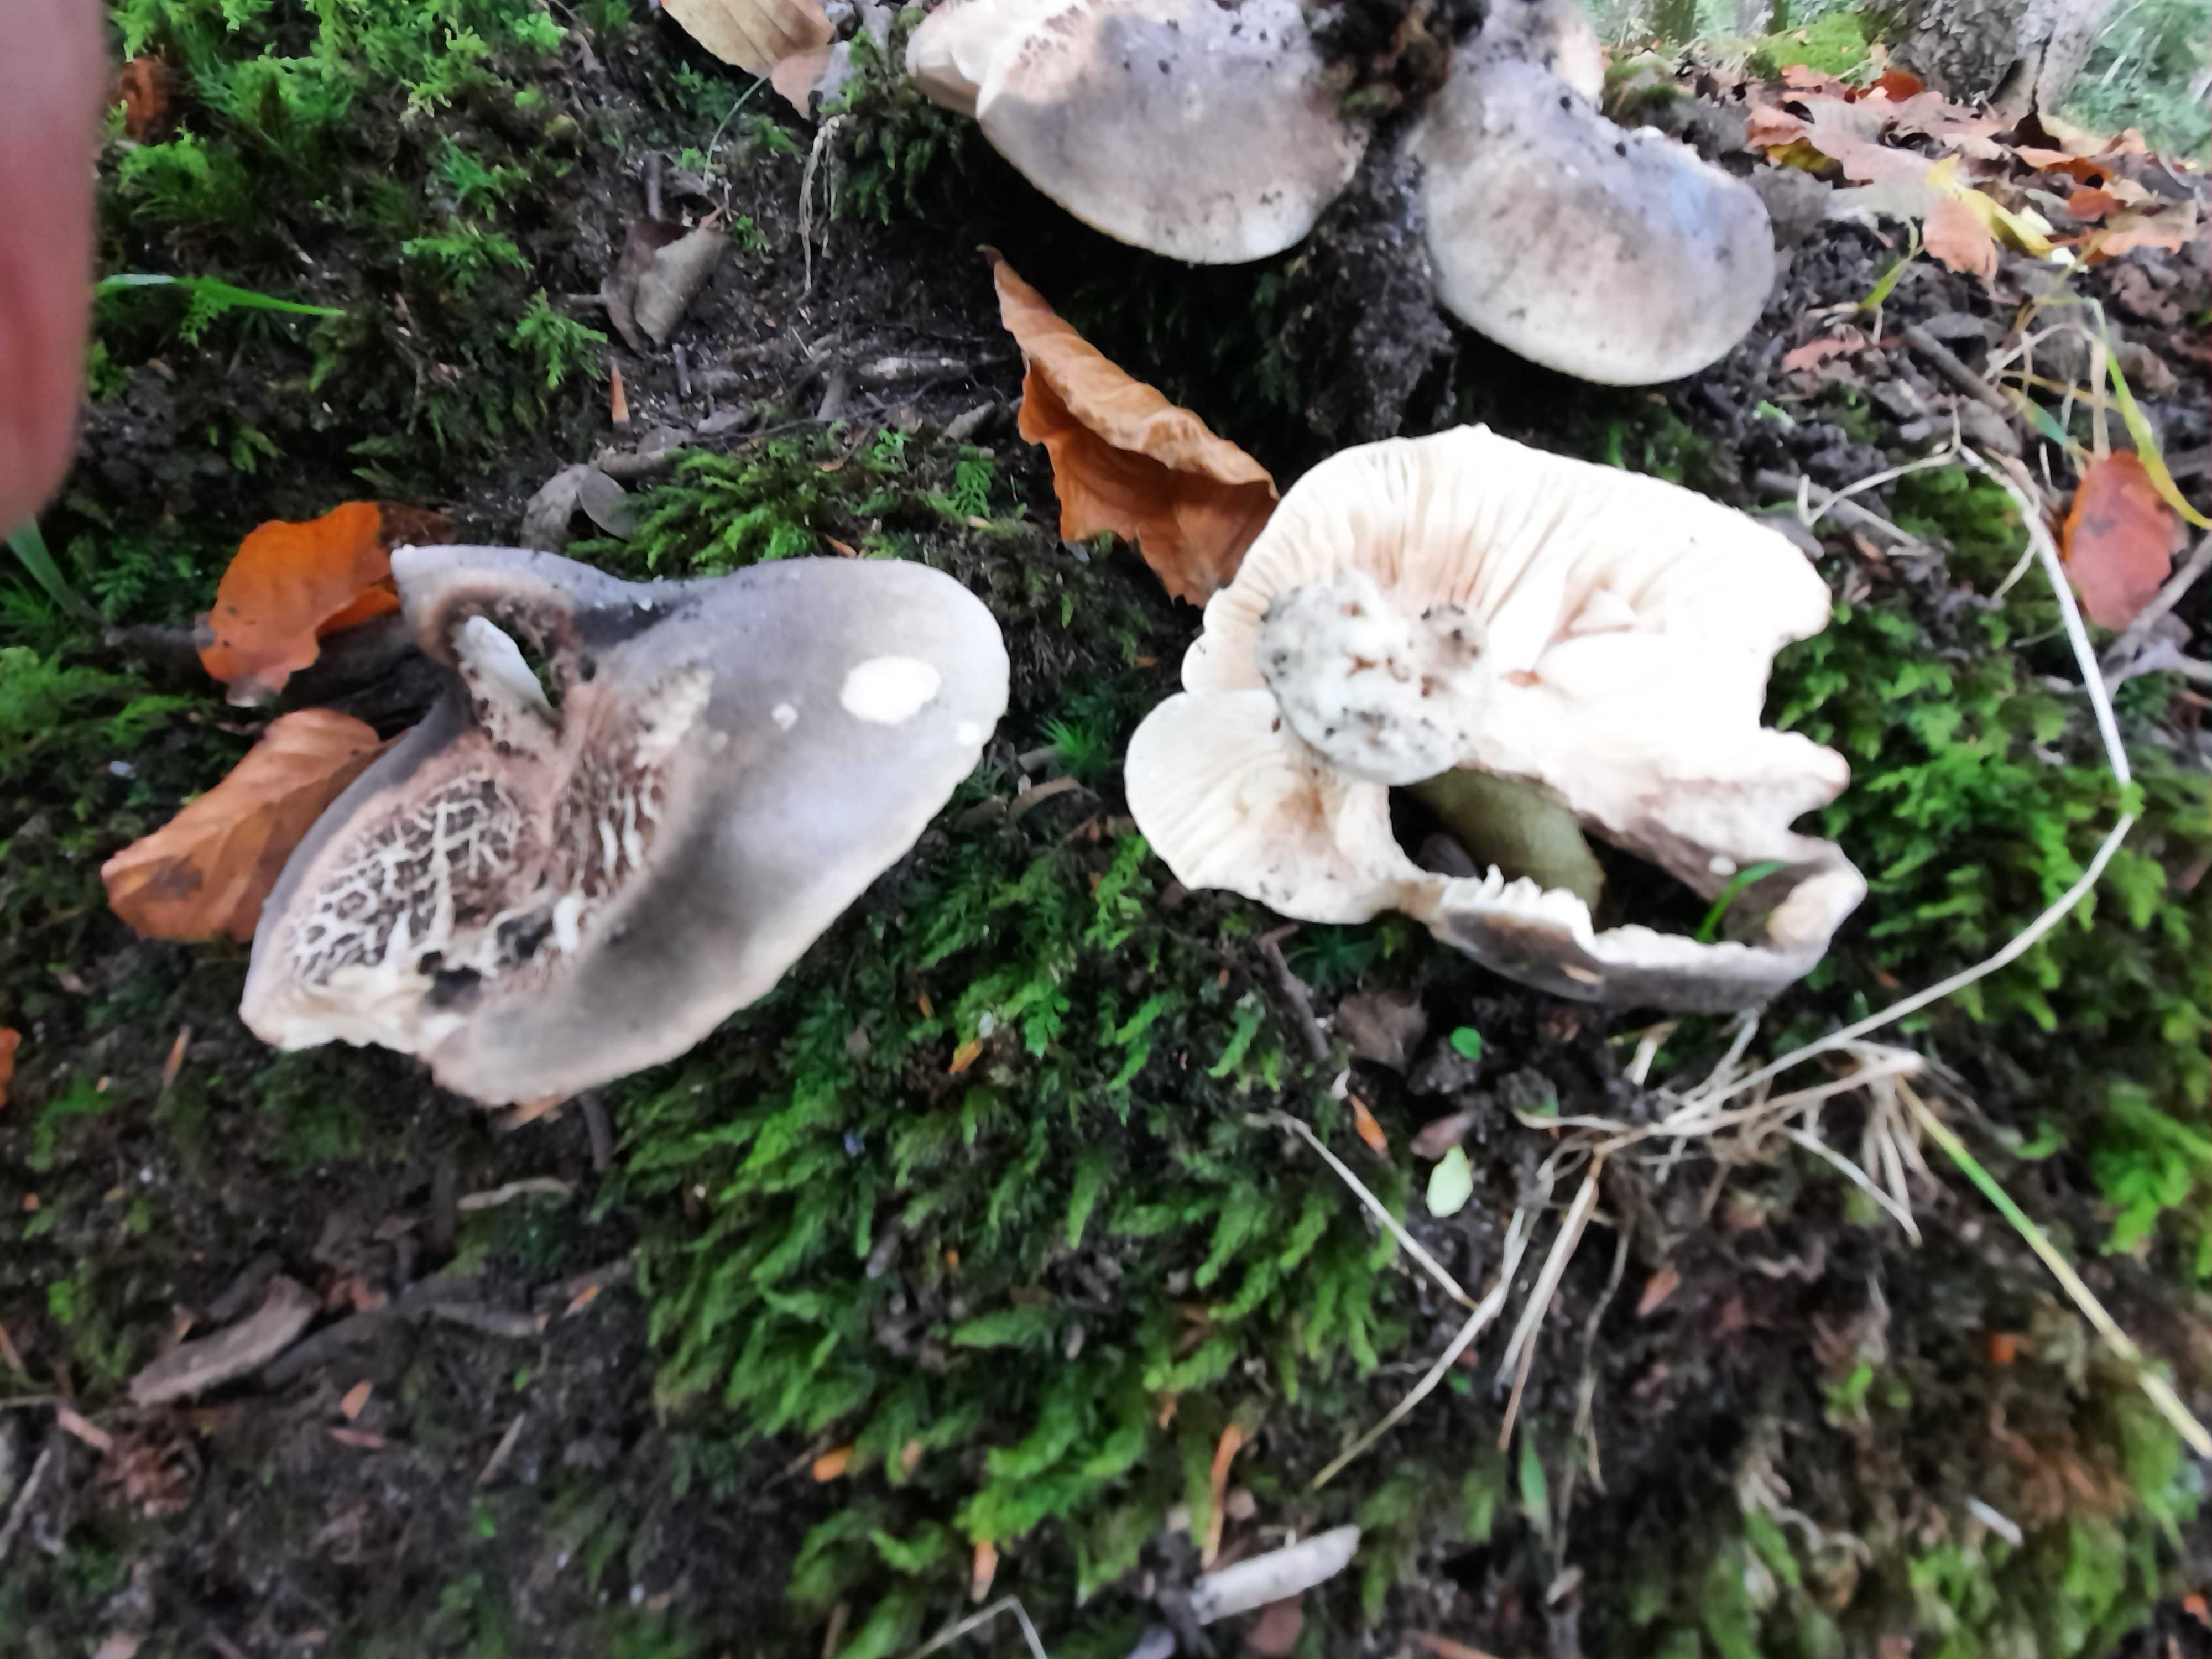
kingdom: Fungi
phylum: Basidiomycota
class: Agaricomycetes
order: Russulales
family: Russulaceae
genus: Russula
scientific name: Russula adusta
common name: sværtende skørhat
